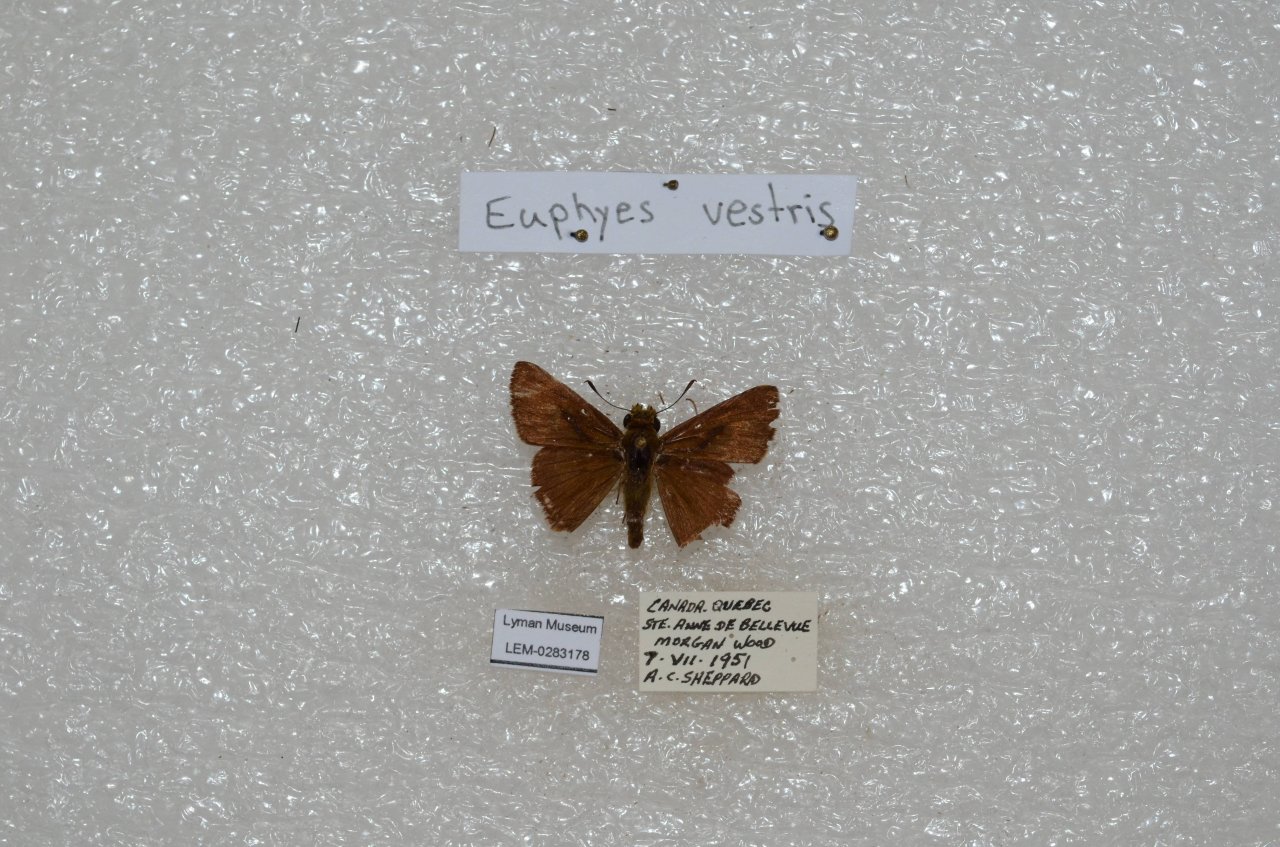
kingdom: Animalia
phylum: Arthropoda
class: Insecta
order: Lepidoptera
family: Hesperiidae
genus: Euphyes
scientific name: Euphyes vestris
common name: Dun Skipper
